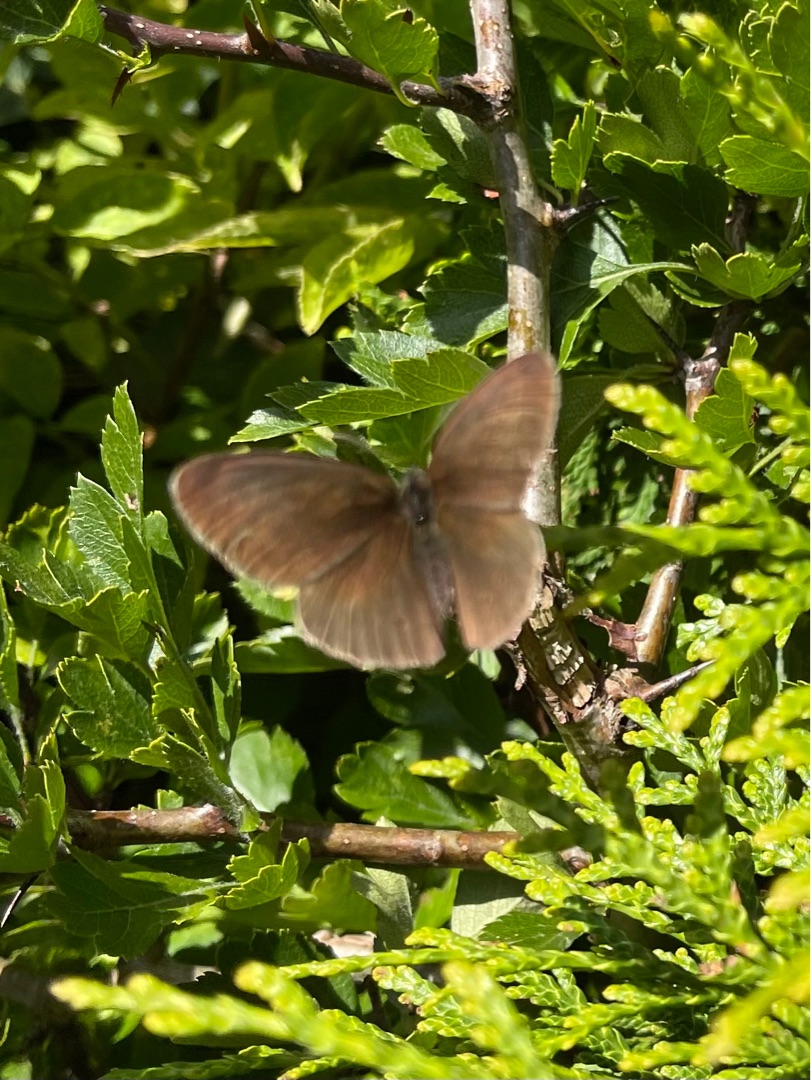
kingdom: Animalia
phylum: Arthropoda
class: Insecta
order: Lepidoptera
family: Nymphalidae
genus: Aphantopus
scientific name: Aphantopus hyperantus
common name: Engrandøje
